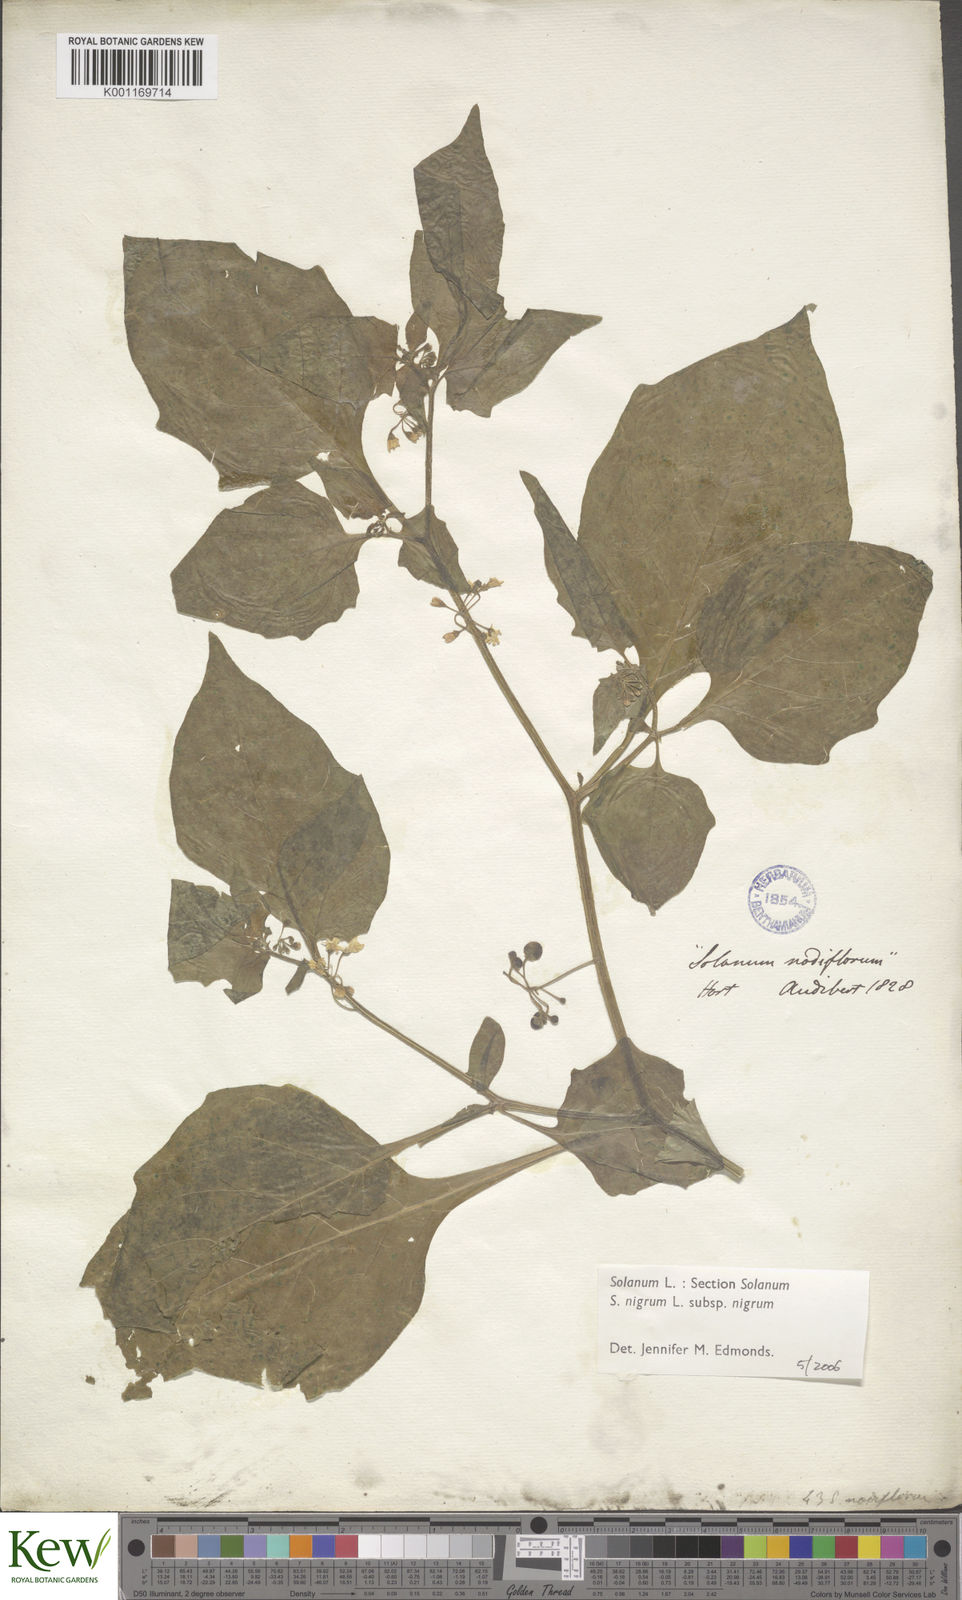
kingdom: Plantae
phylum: Tracheophyta
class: Magnoliopsida
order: Solanales
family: Solanaceae
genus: Solanum
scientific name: Solanum nigrum
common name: Black nightshade
